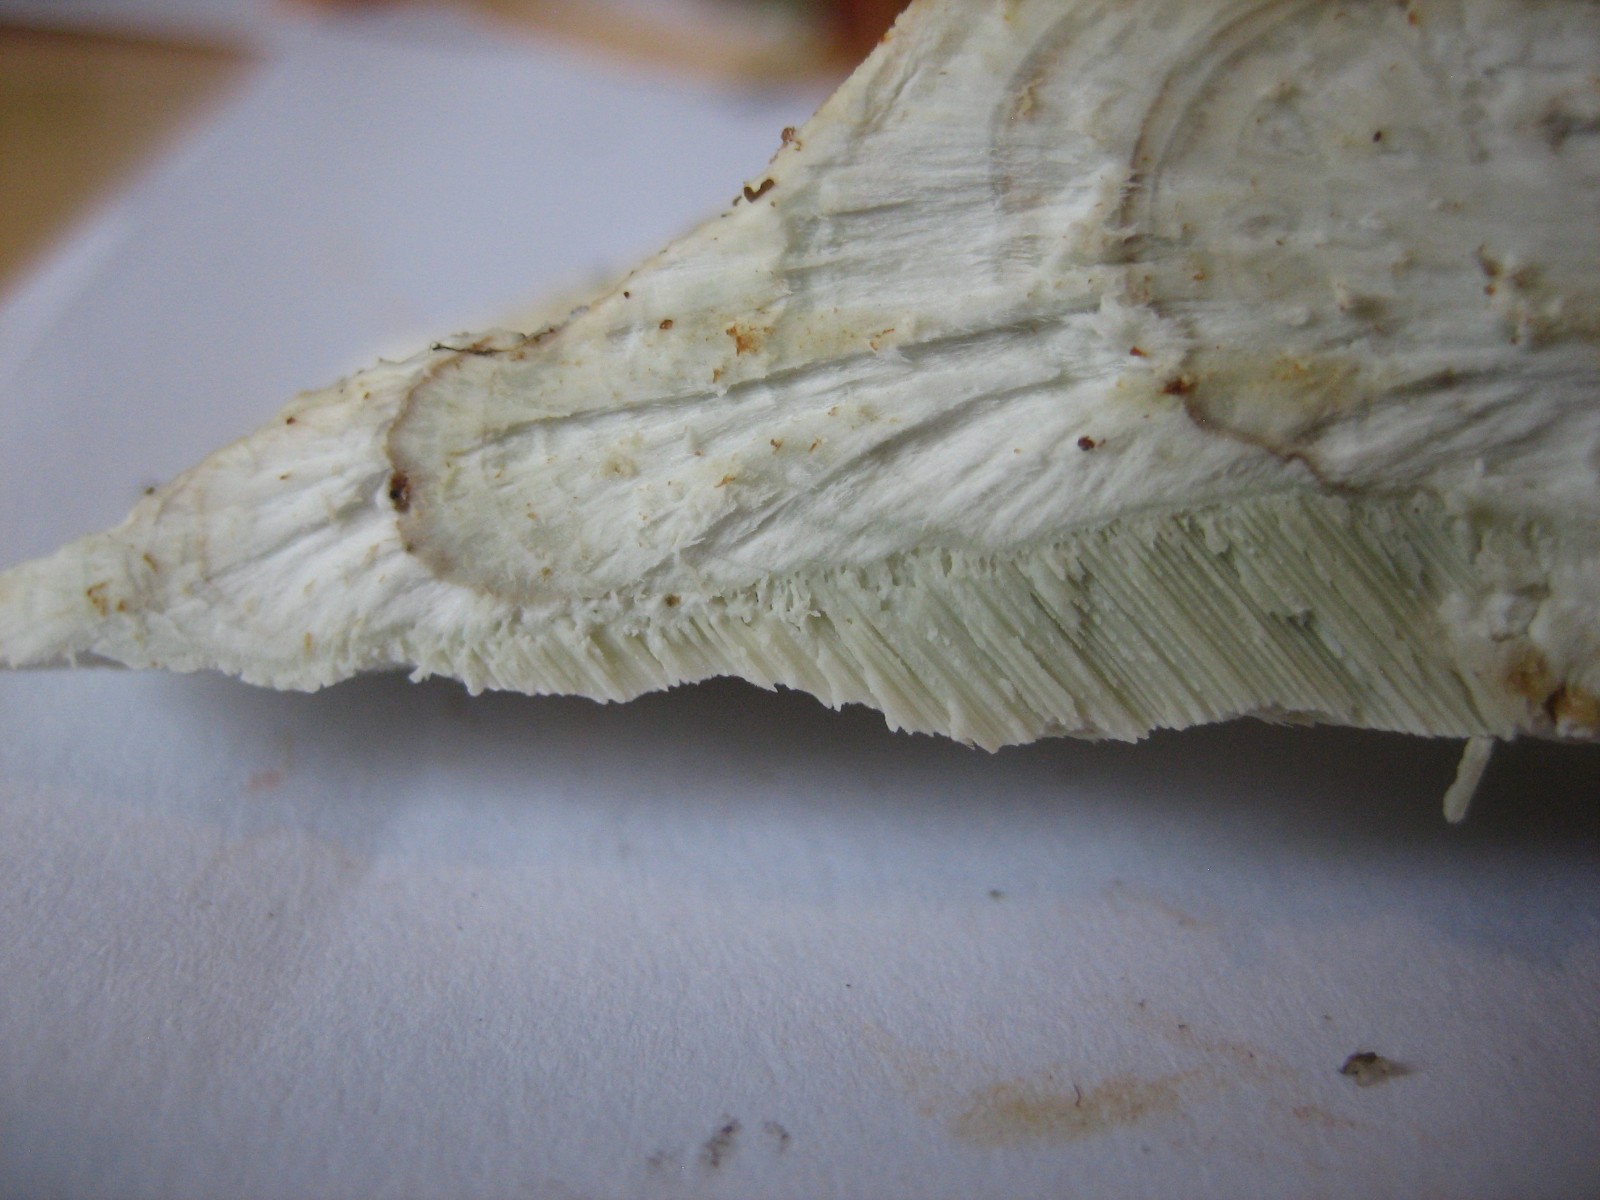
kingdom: Fungi
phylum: Basidiomycota
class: Agaricomycetes
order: Polyporales
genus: Calcipostia
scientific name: Calcipostia guttulata
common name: dråbe-kødporesvamp
